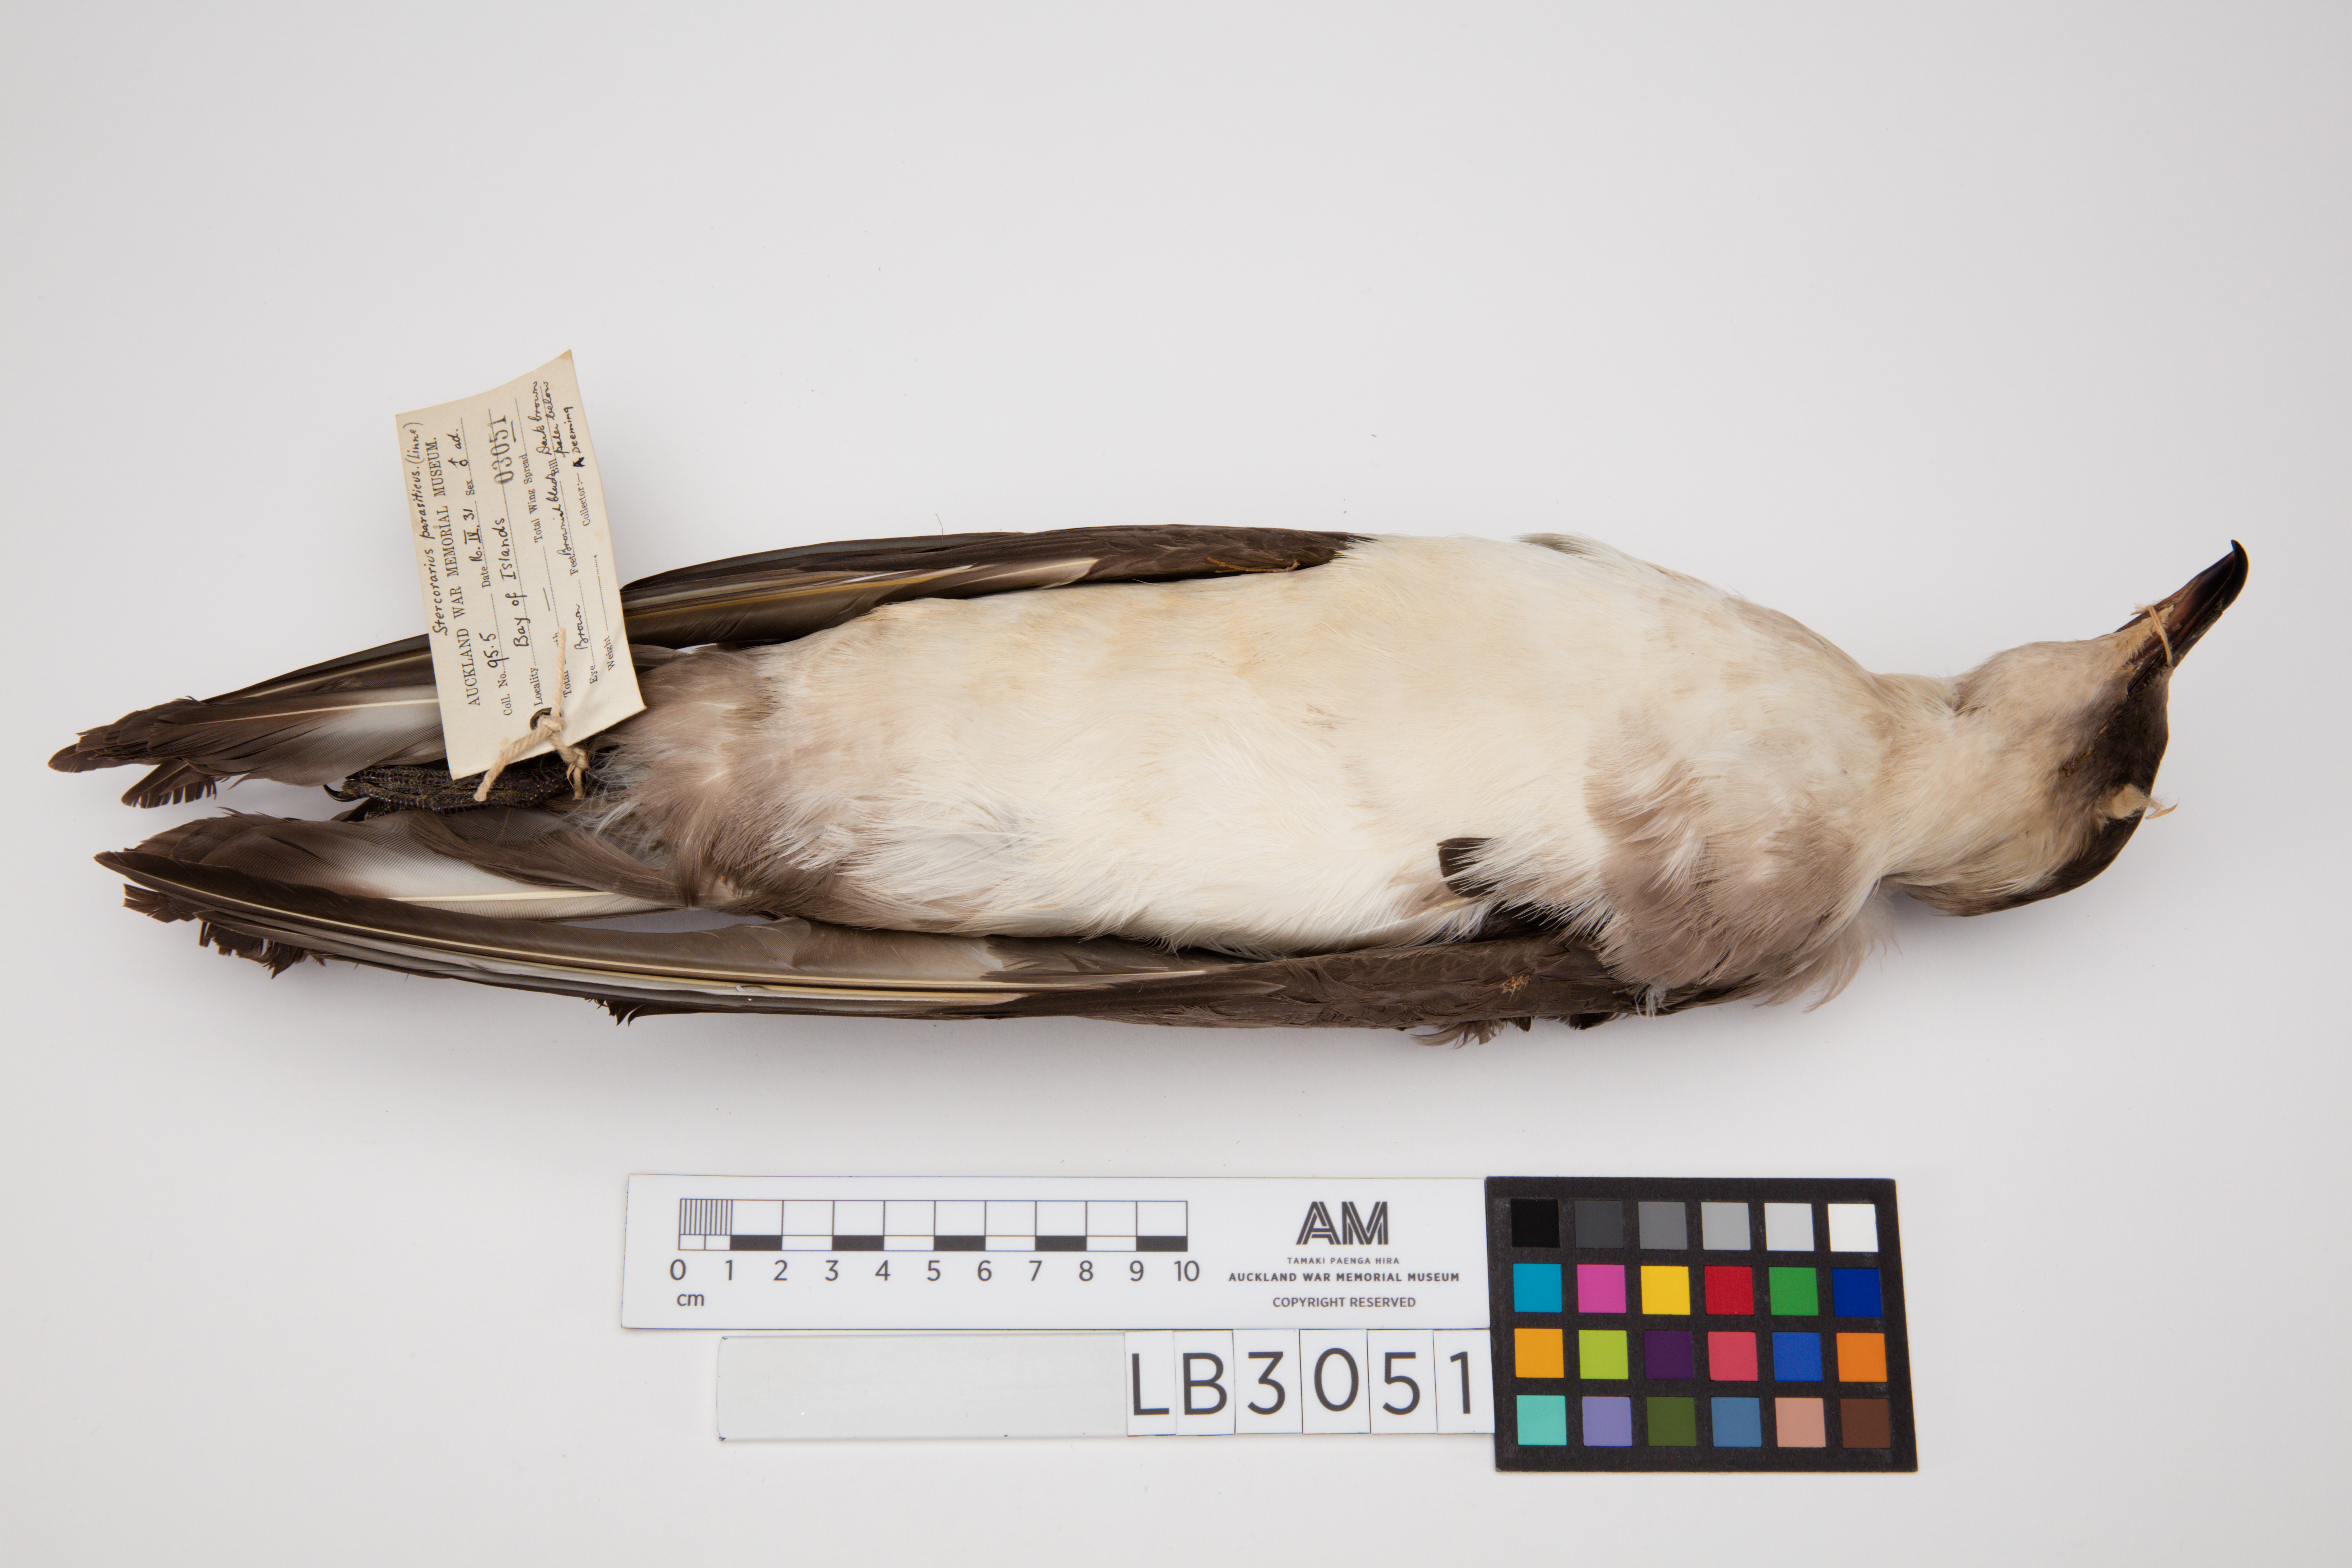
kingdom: Animalia
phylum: Chordata
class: Aves
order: Charadriiformes
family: Stercorariidae
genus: Stercorarius
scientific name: Stercorarius parasiticus
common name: Parasitic jaeger
